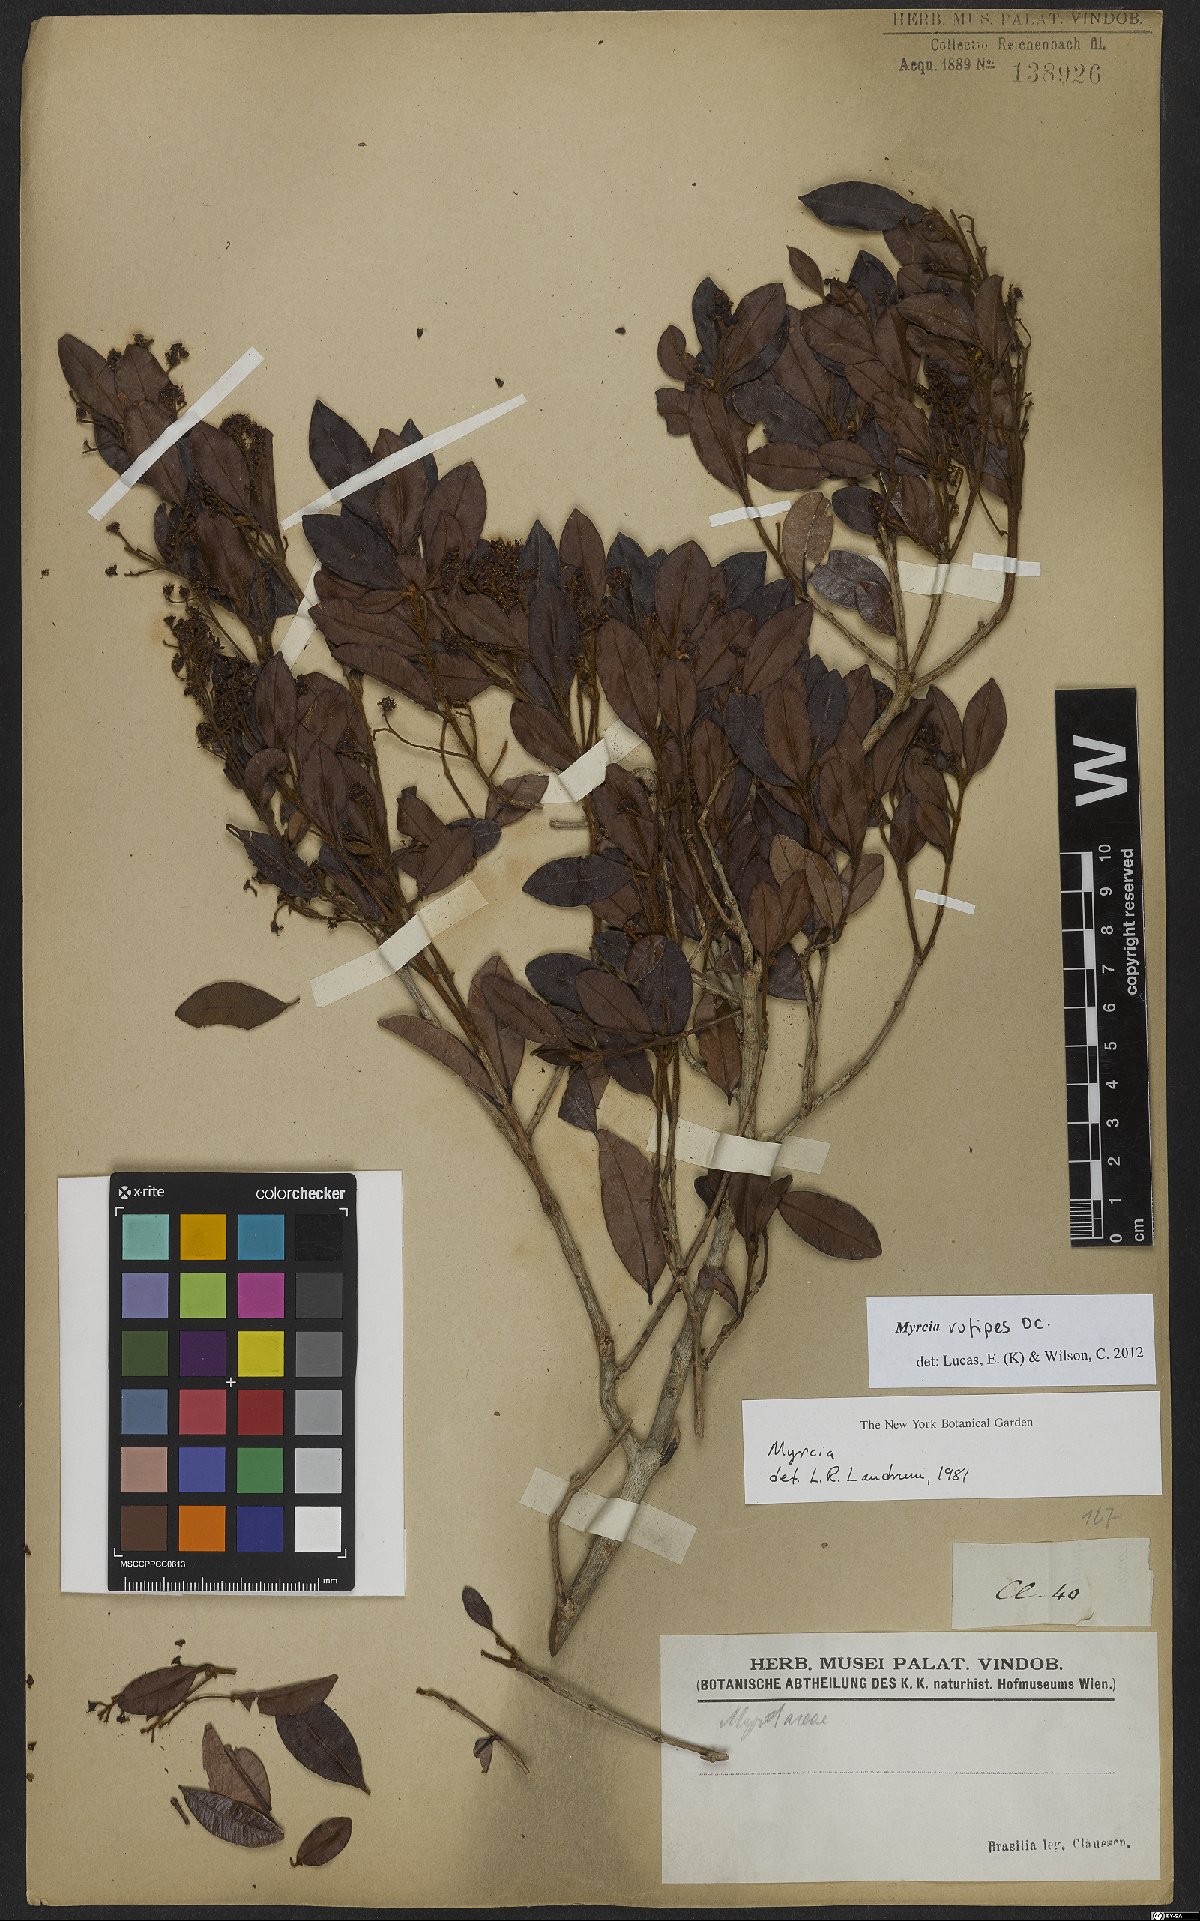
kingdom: Plantae
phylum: Tracheophyta
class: Magnoliopsida
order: Myrtales
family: Myrtaceae
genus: Myrcia
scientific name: Myrcia rufipes
